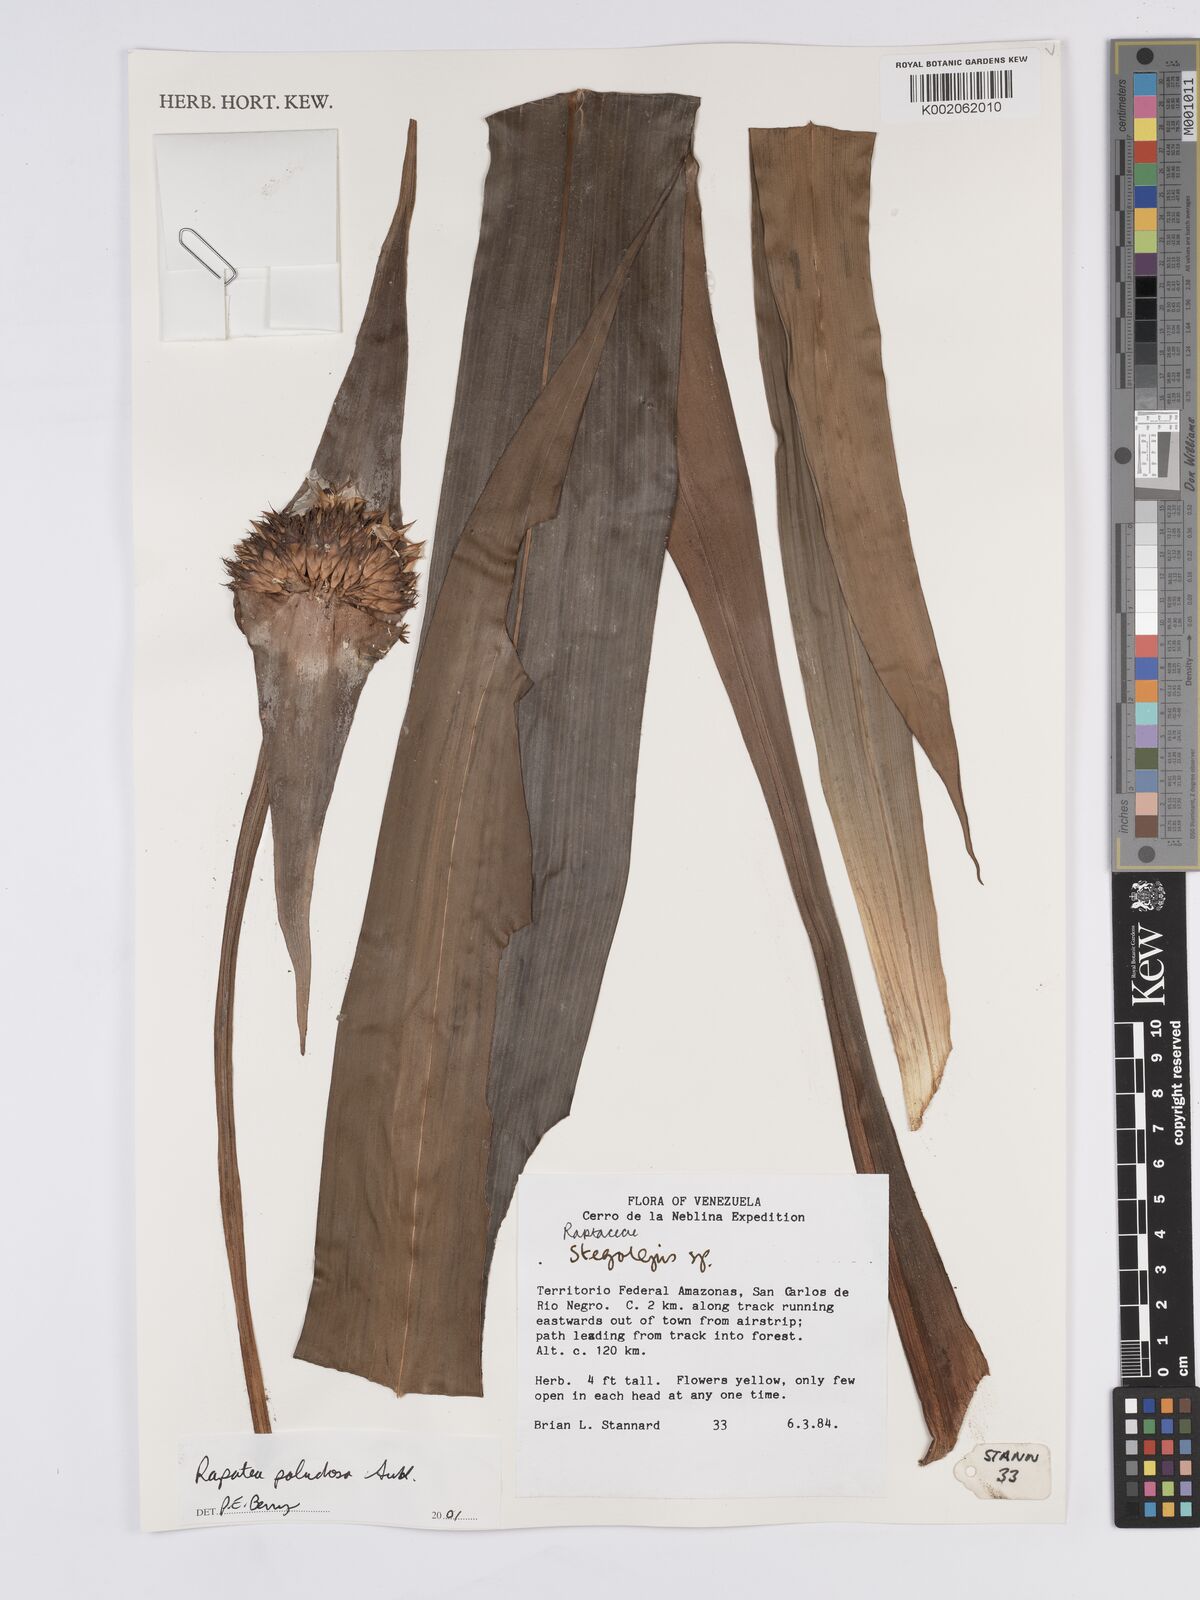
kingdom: Plantae
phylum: Tracheophyta
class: Liliopsida
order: Poales
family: Rapateaceae
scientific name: Rapateaceae
